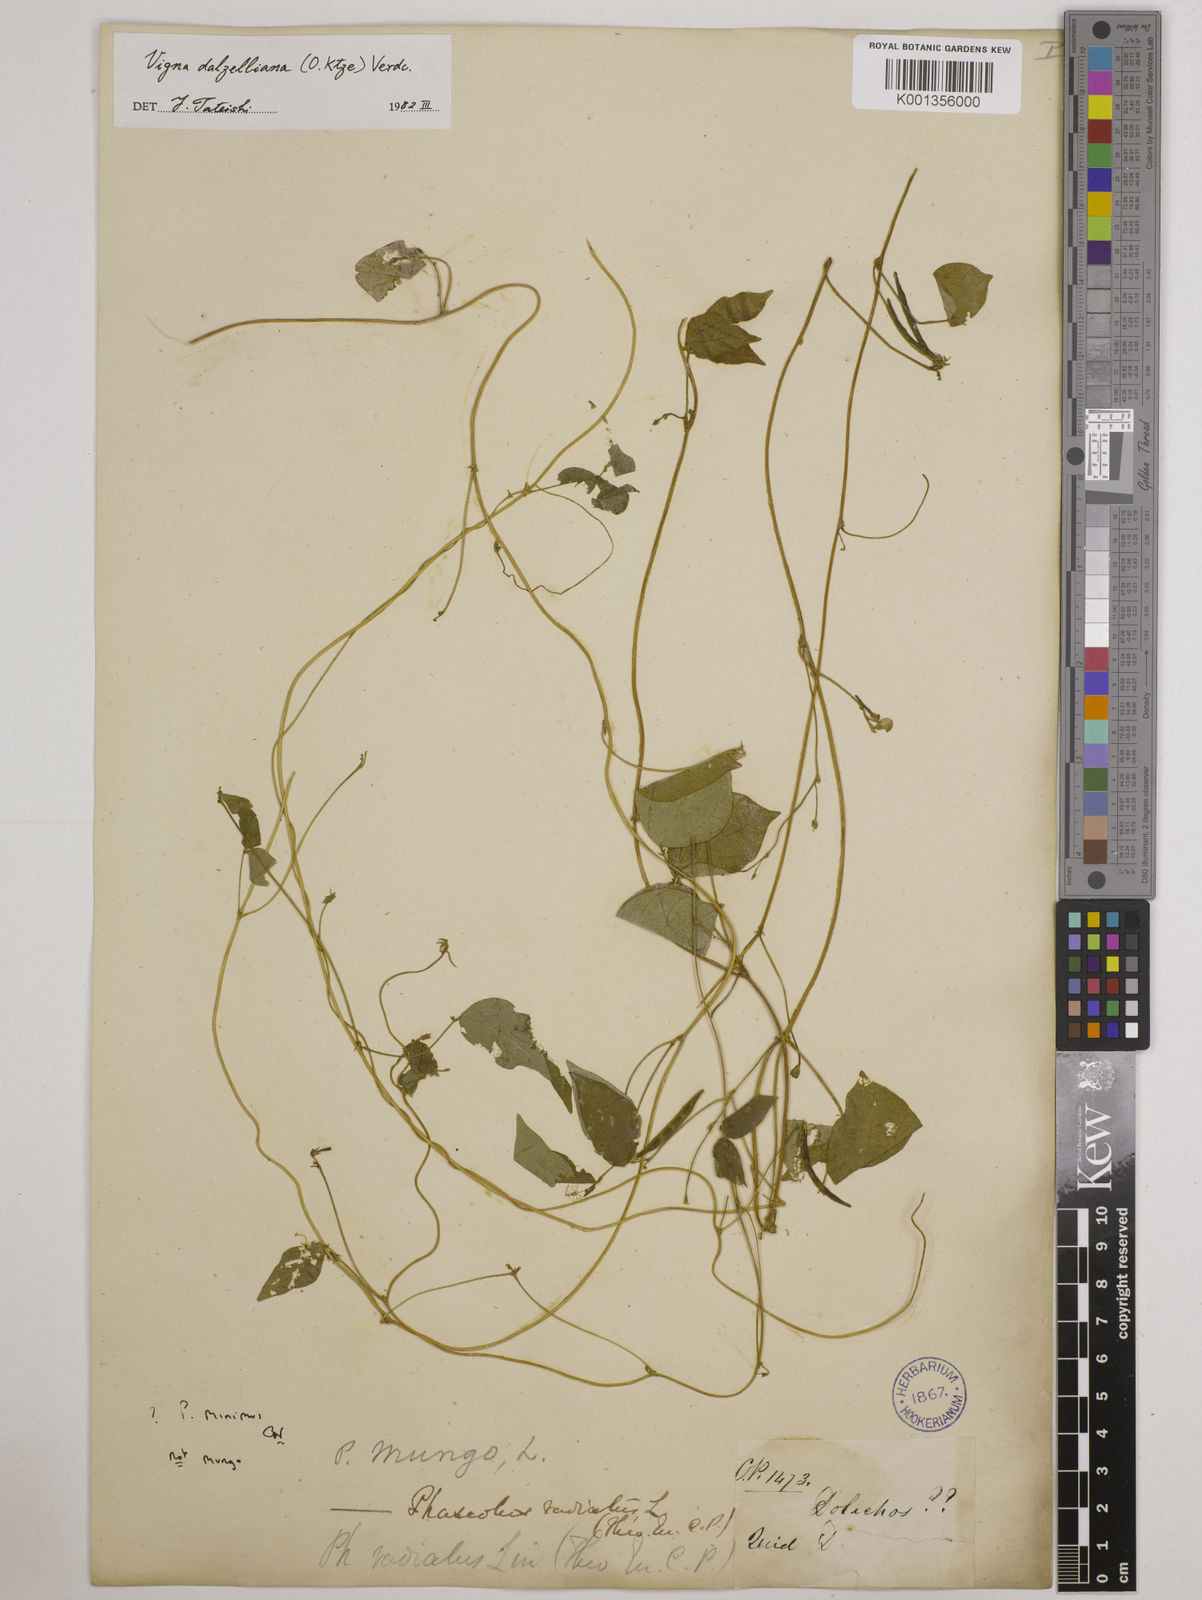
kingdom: Plantae
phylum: Tracheophyta
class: Magnoliopsida
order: Fabales
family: Fabaceae
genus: Vigna
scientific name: Vigna dalzelliana
